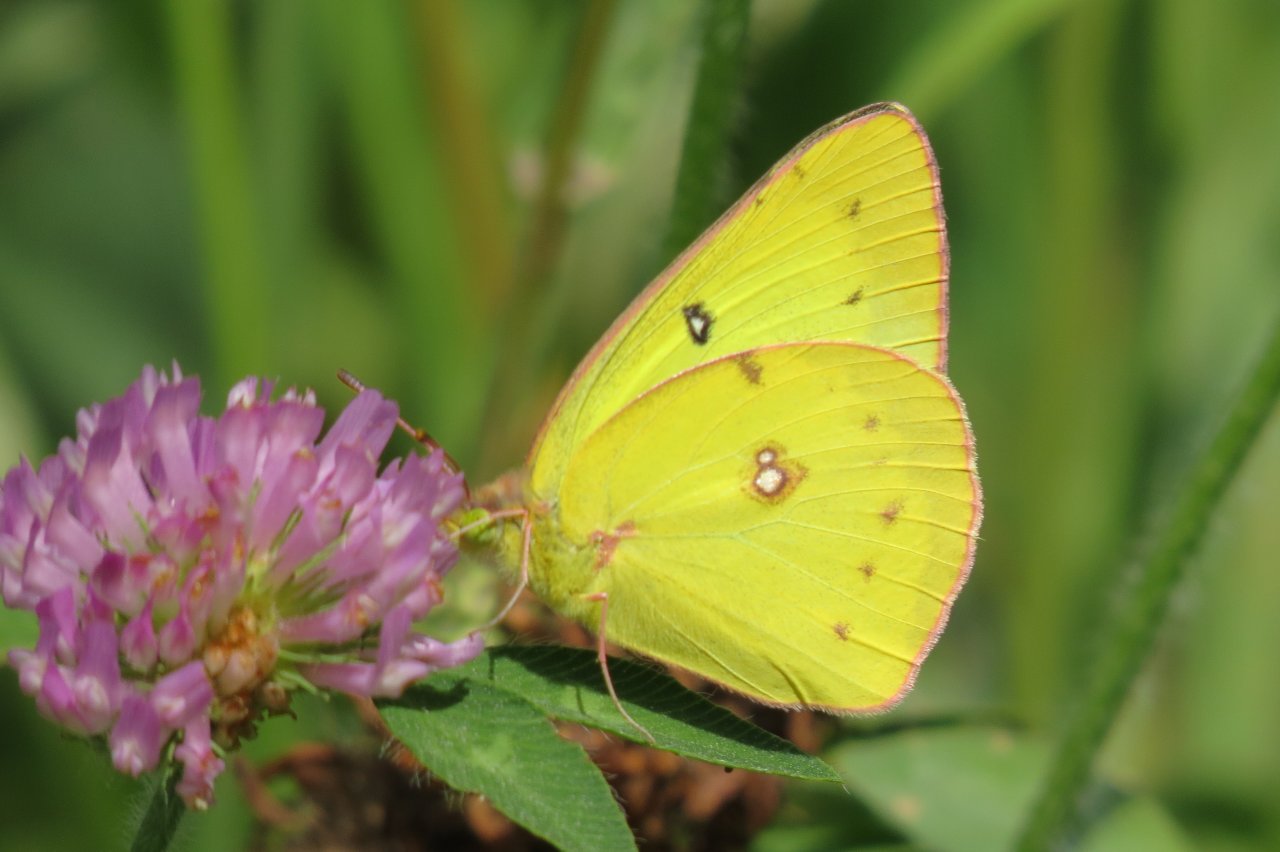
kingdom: Animalia
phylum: Arthropoda
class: Insecta
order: Lepidoptera
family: Pieridae
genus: Colias
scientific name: Colias philodice
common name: Clouded Sulphur
